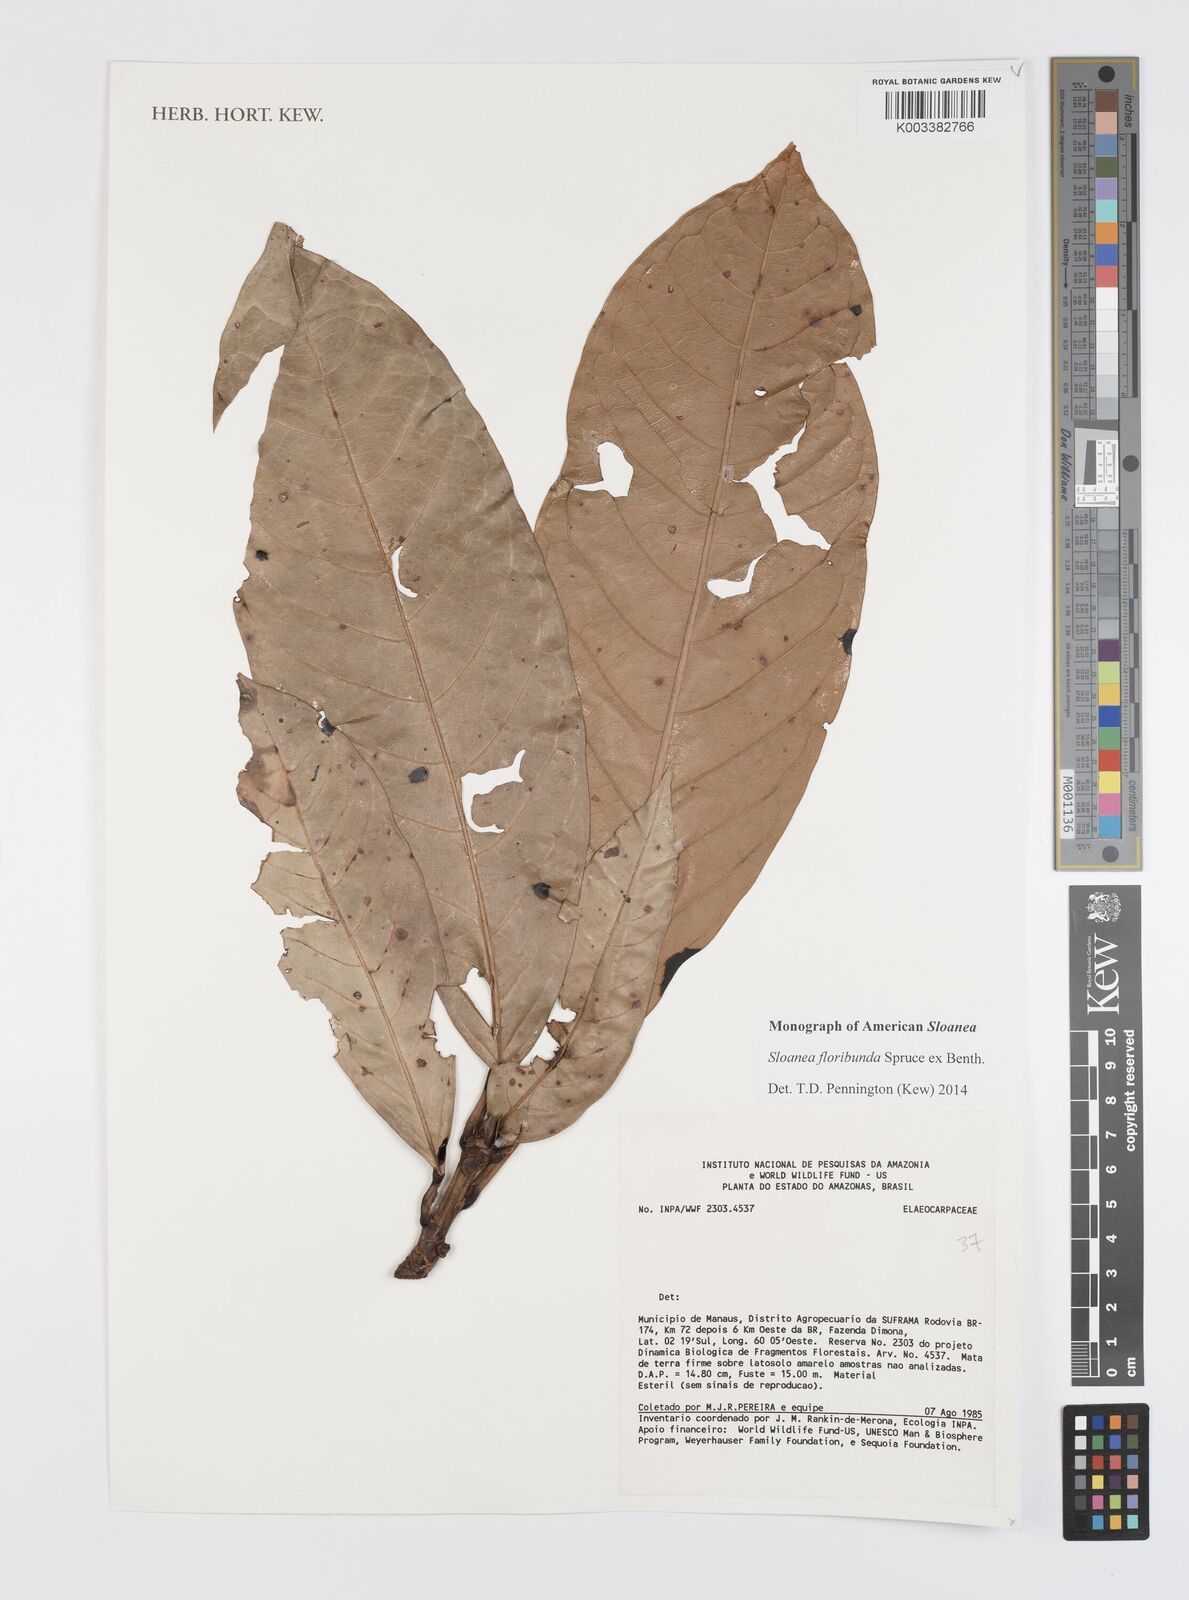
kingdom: Plantae
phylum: Tracheophyta
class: Magnoliopsida
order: Oxalidales
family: Elaeocarpaceae
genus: Sloanea
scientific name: Sloanea floribunda
